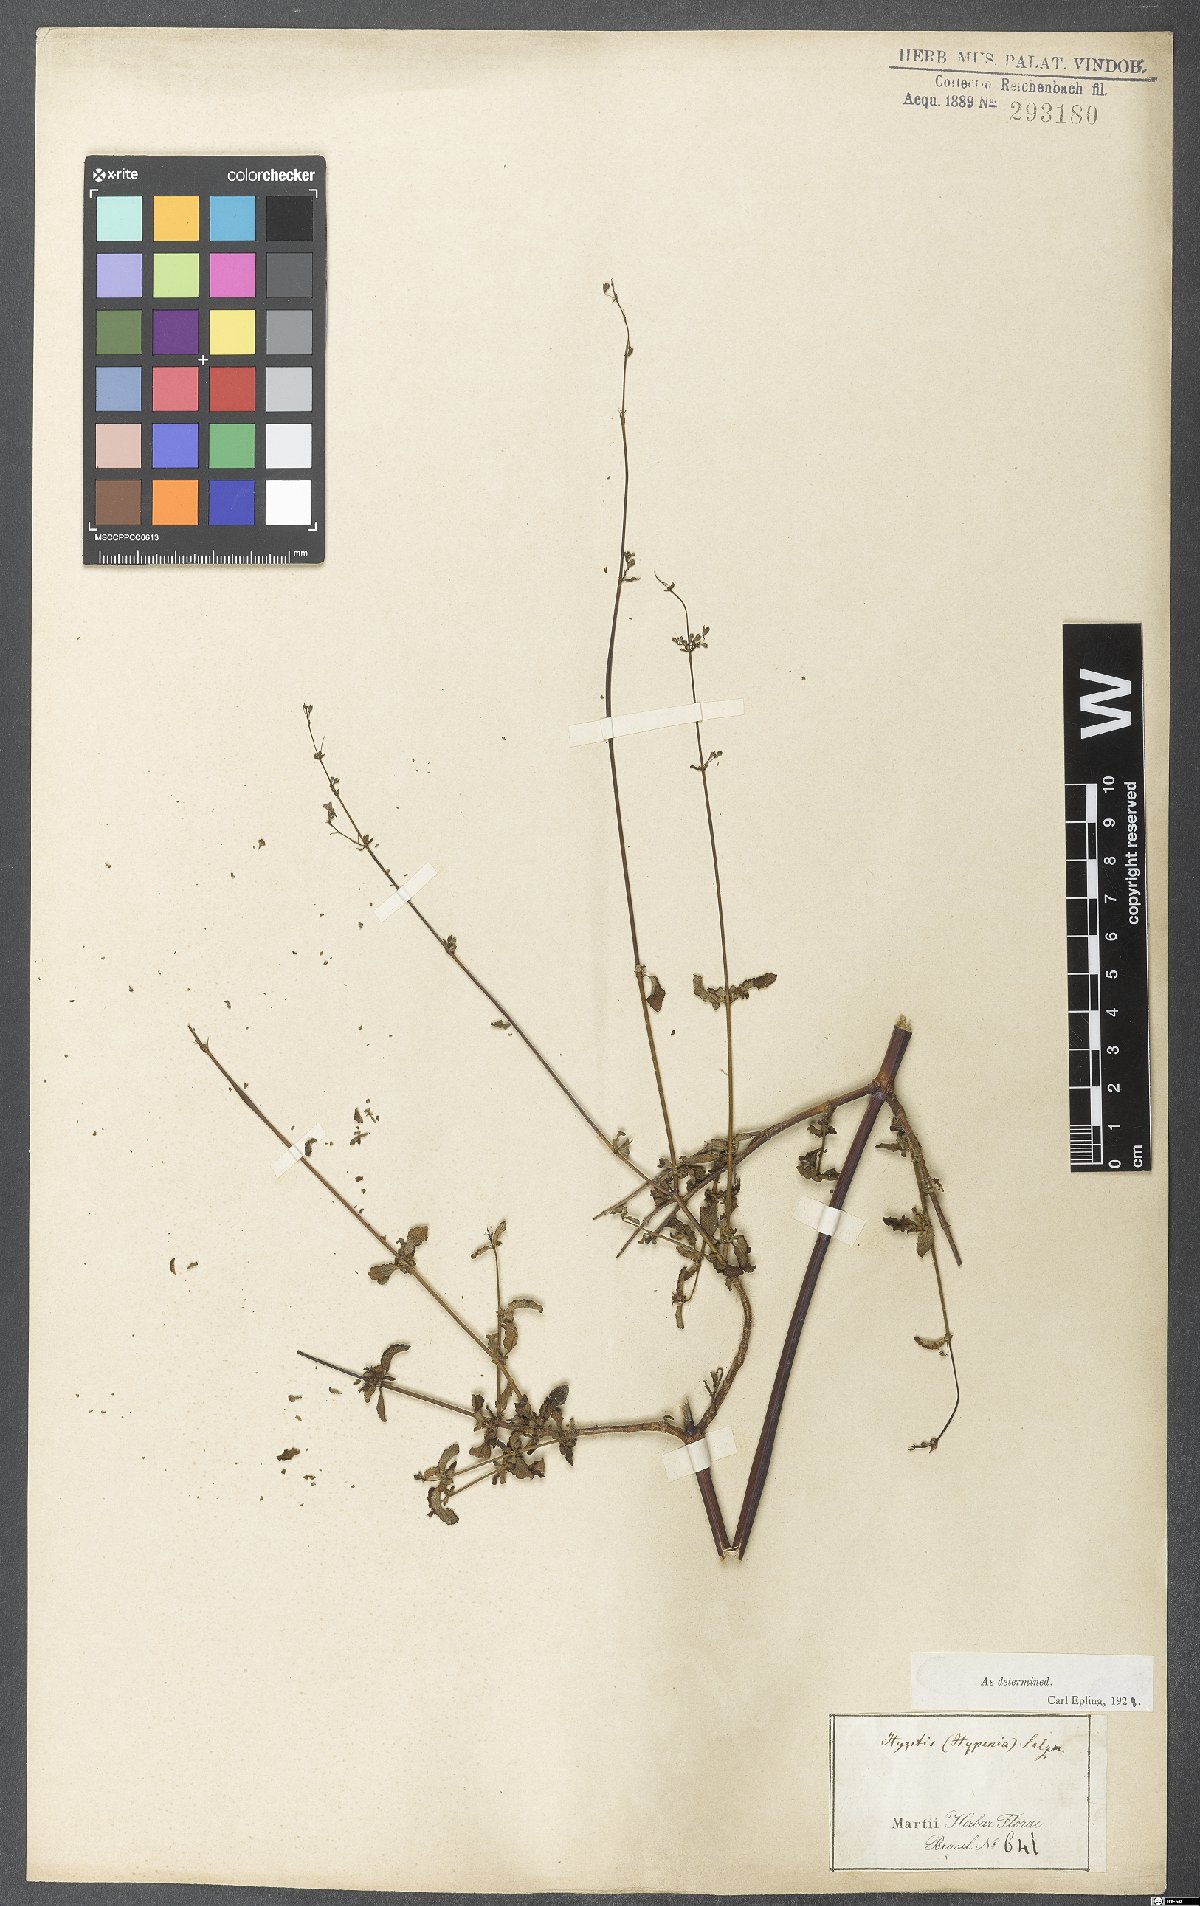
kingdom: Plantae
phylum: Tracheophyta
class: Magnoliopsida
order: Lamiales
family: Lamiaceae
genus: Hypenia
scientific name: Hypenia salzmannii
